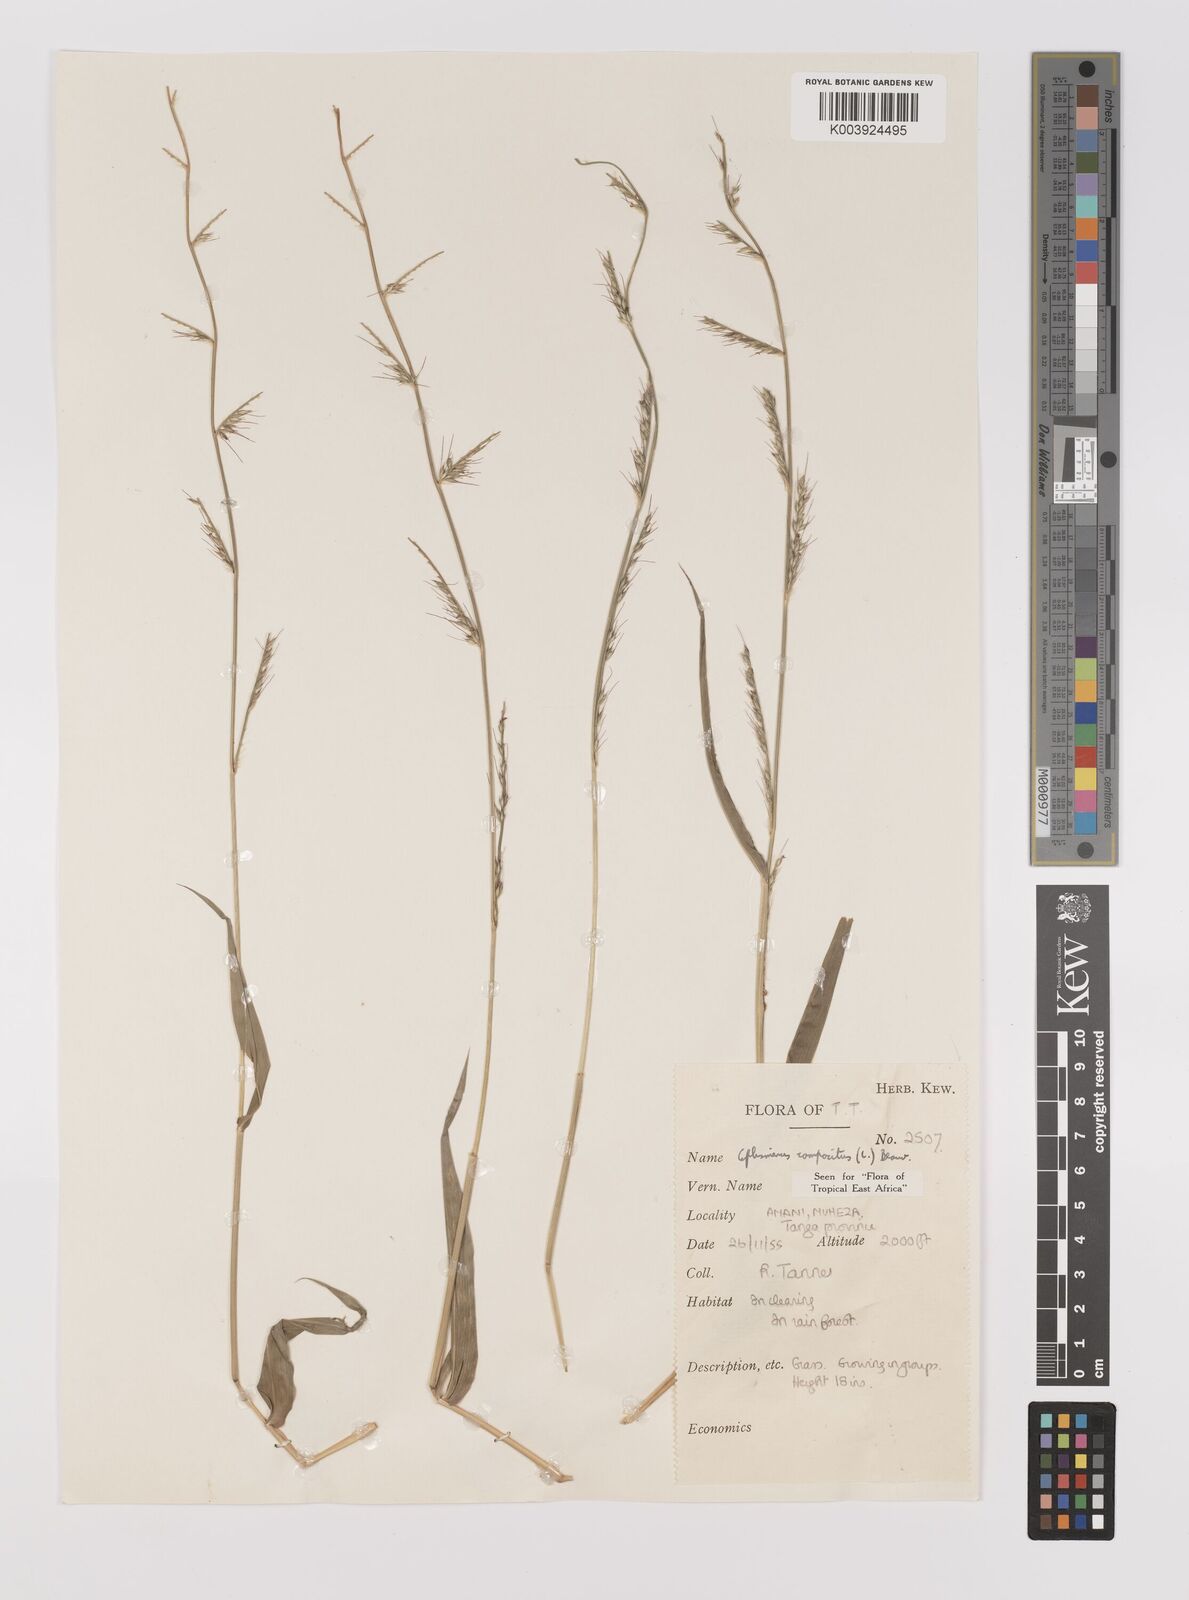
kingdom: Plantae
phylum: Tracheophyta
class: Liliopsida
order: Poales
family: Poaceae
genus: Oplismenus
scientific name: Oplismenus compositus
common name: Running mountain grass
